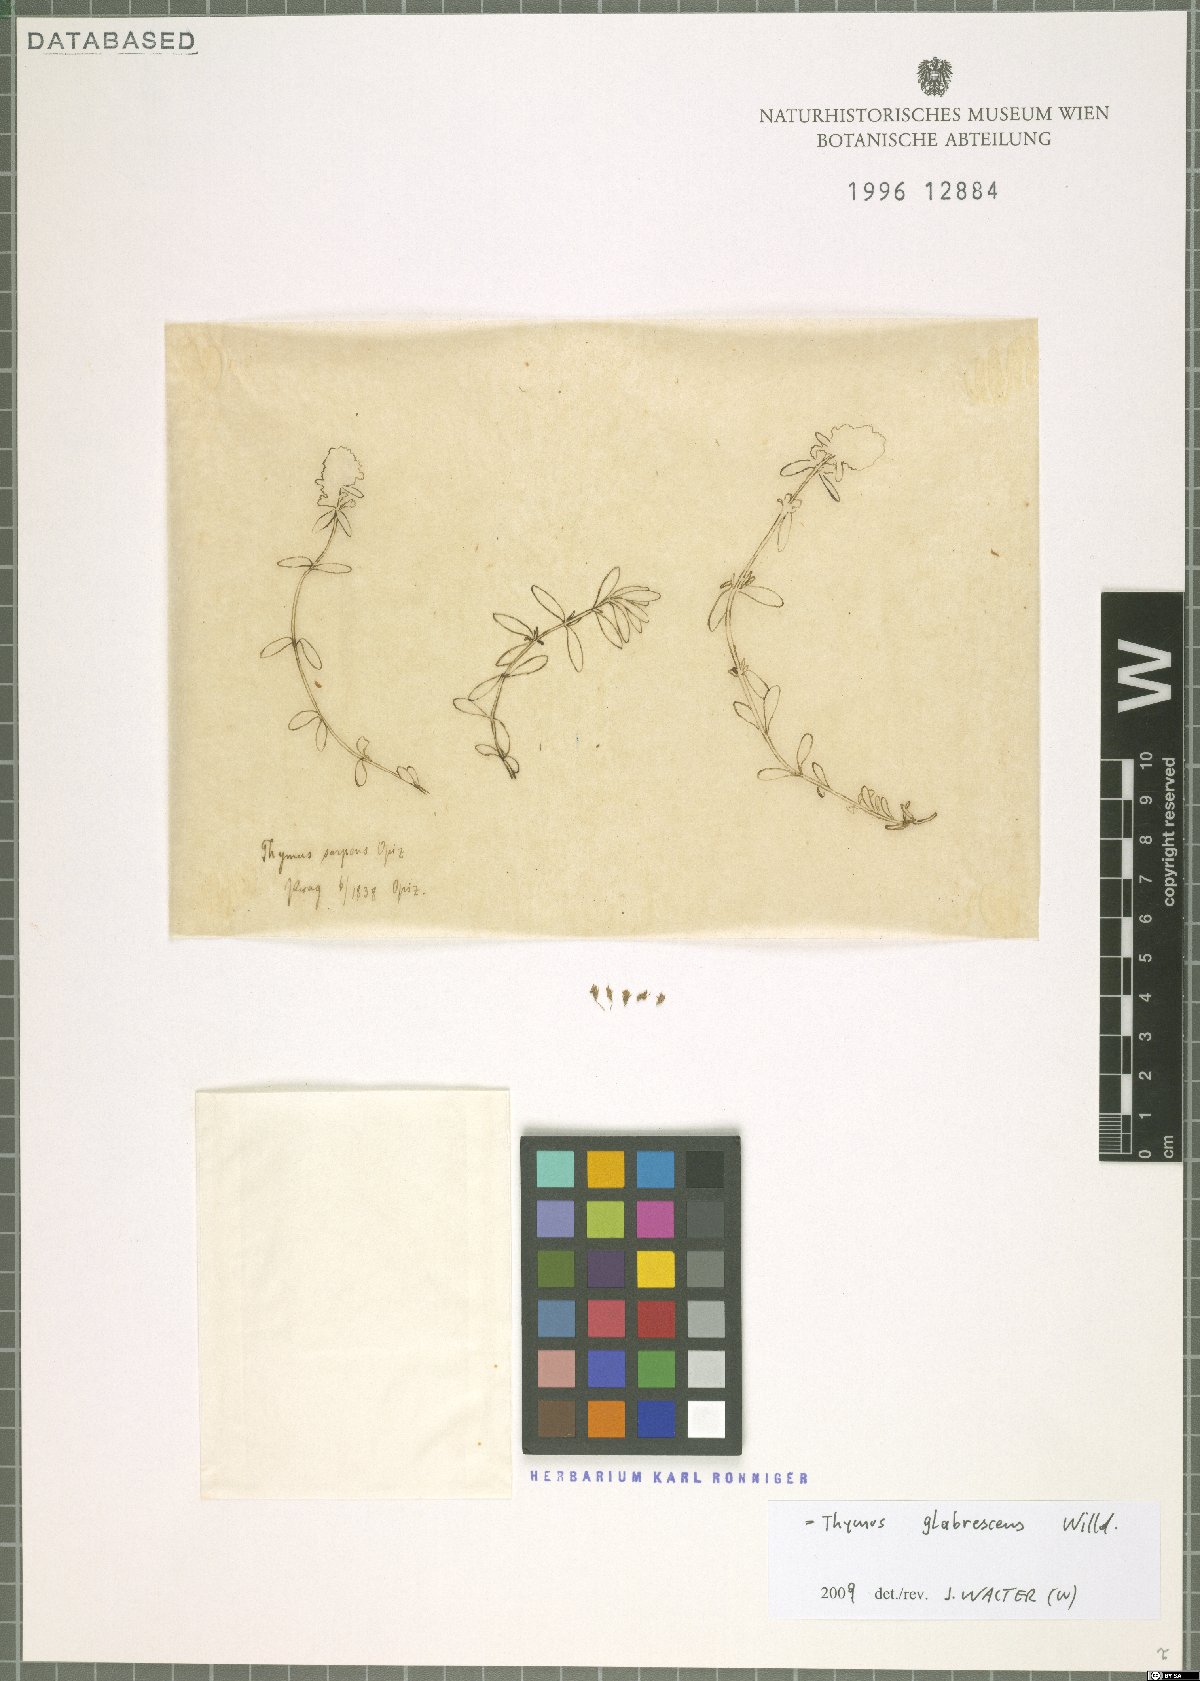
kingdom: Plantae
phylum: Tracheophyta
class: Magnoliopsida
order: Lamiales
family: Lamiaceae
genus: Thymus
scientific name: Thymus odoratissimus
